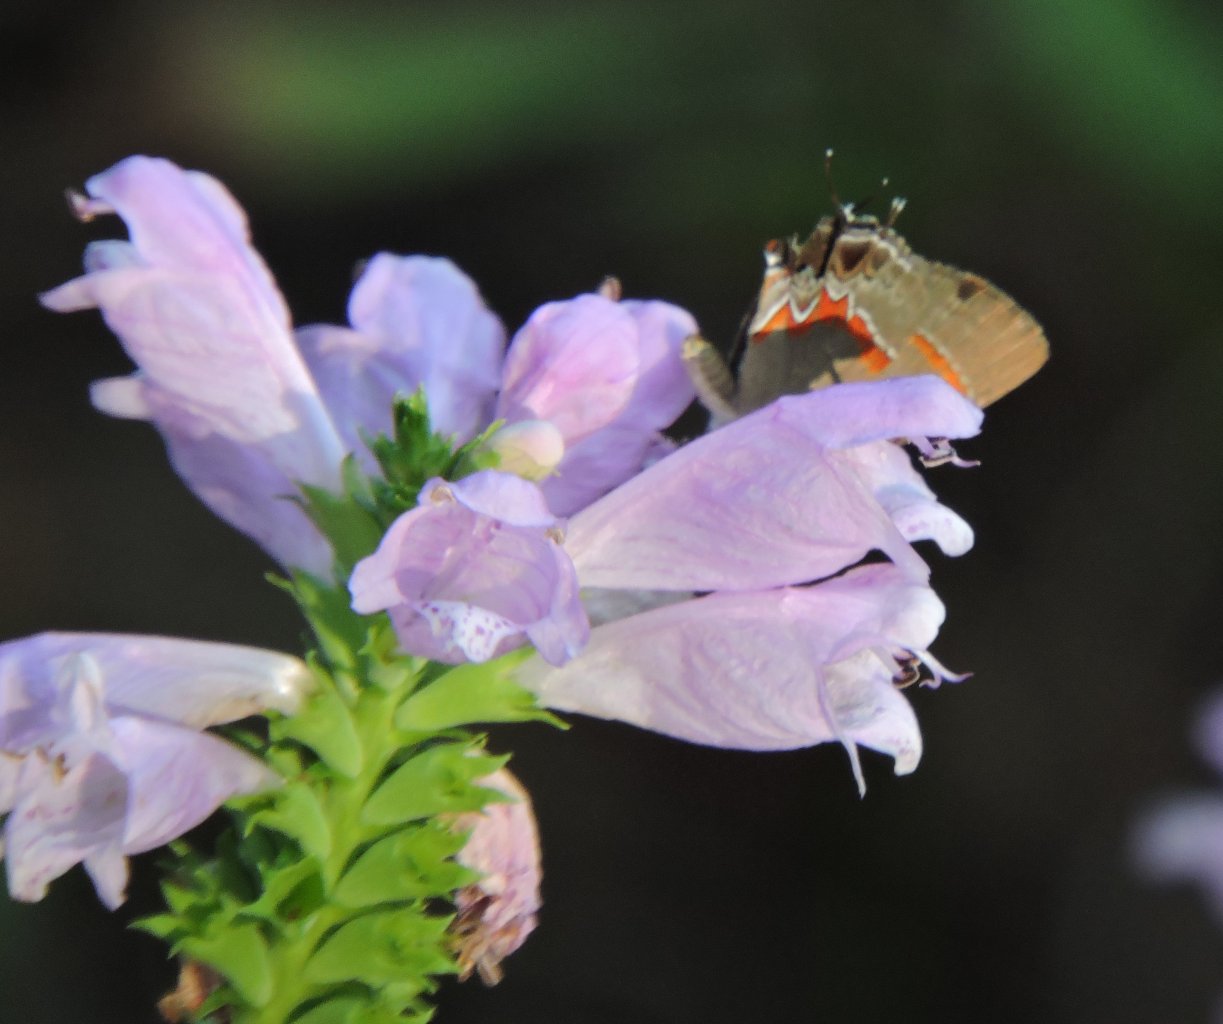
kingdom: Animalia
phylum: Arthropoda
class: Insecta
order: Lepidoptera
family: Lycaenidae
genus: Calycopis
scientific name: Calycopis cecrops
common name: Red-banded Hairstreak
